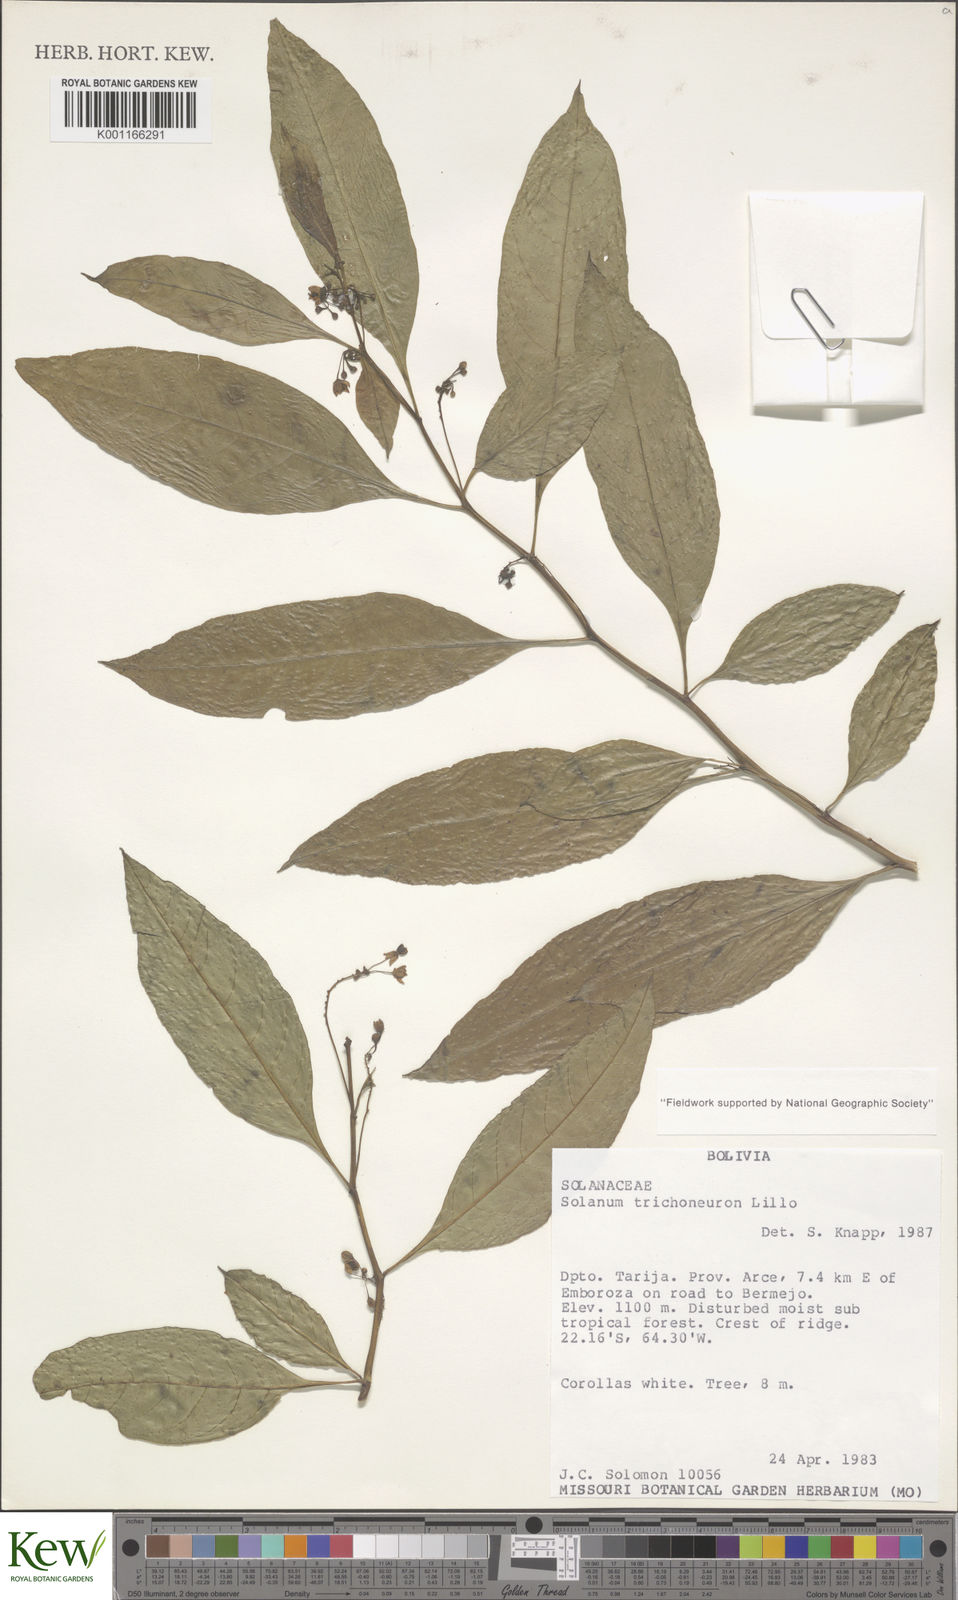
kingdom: Plantae
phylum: Tracheophyta
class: Magnoliopsida
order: Solanales
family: Solanaceae
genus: Solanum
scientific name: Solanum oblongum
